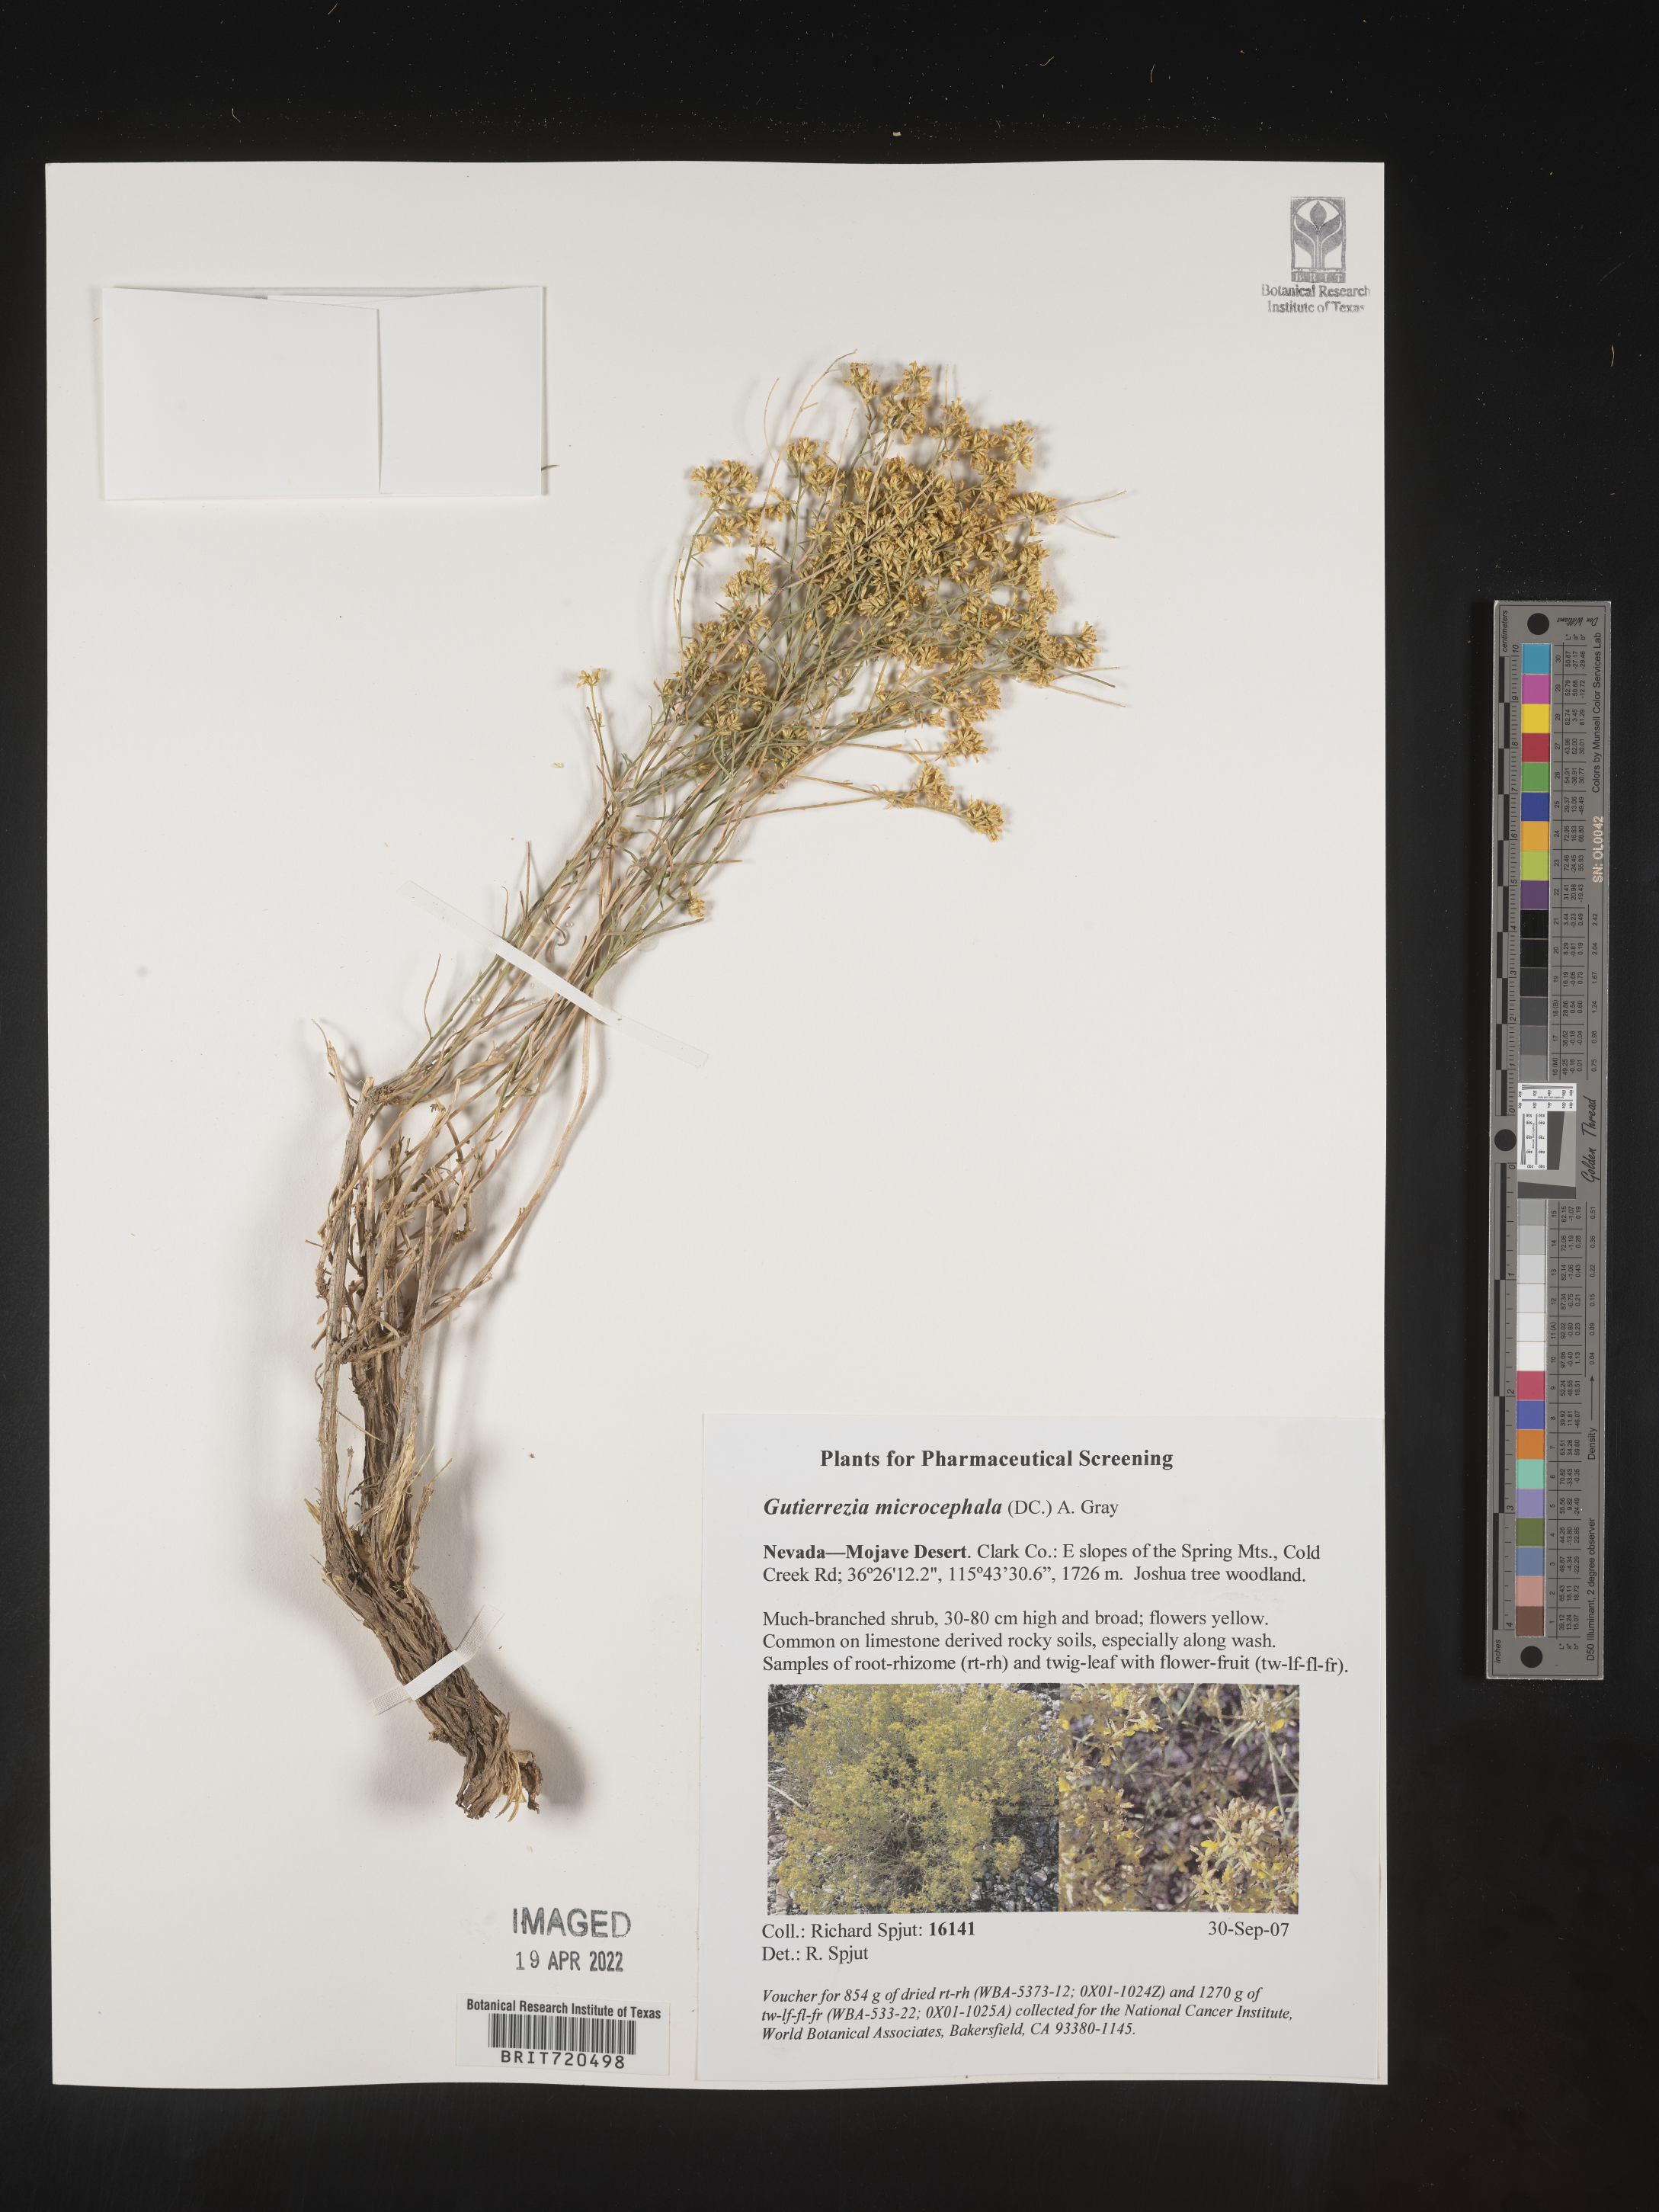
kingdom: Plantae
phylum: Tracheophyta
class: Magnoliopsida
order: Asterales
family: Asteraceae
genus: Gutierrezia
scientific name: Gutierrezia microcephala
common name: Thread snakeweed
